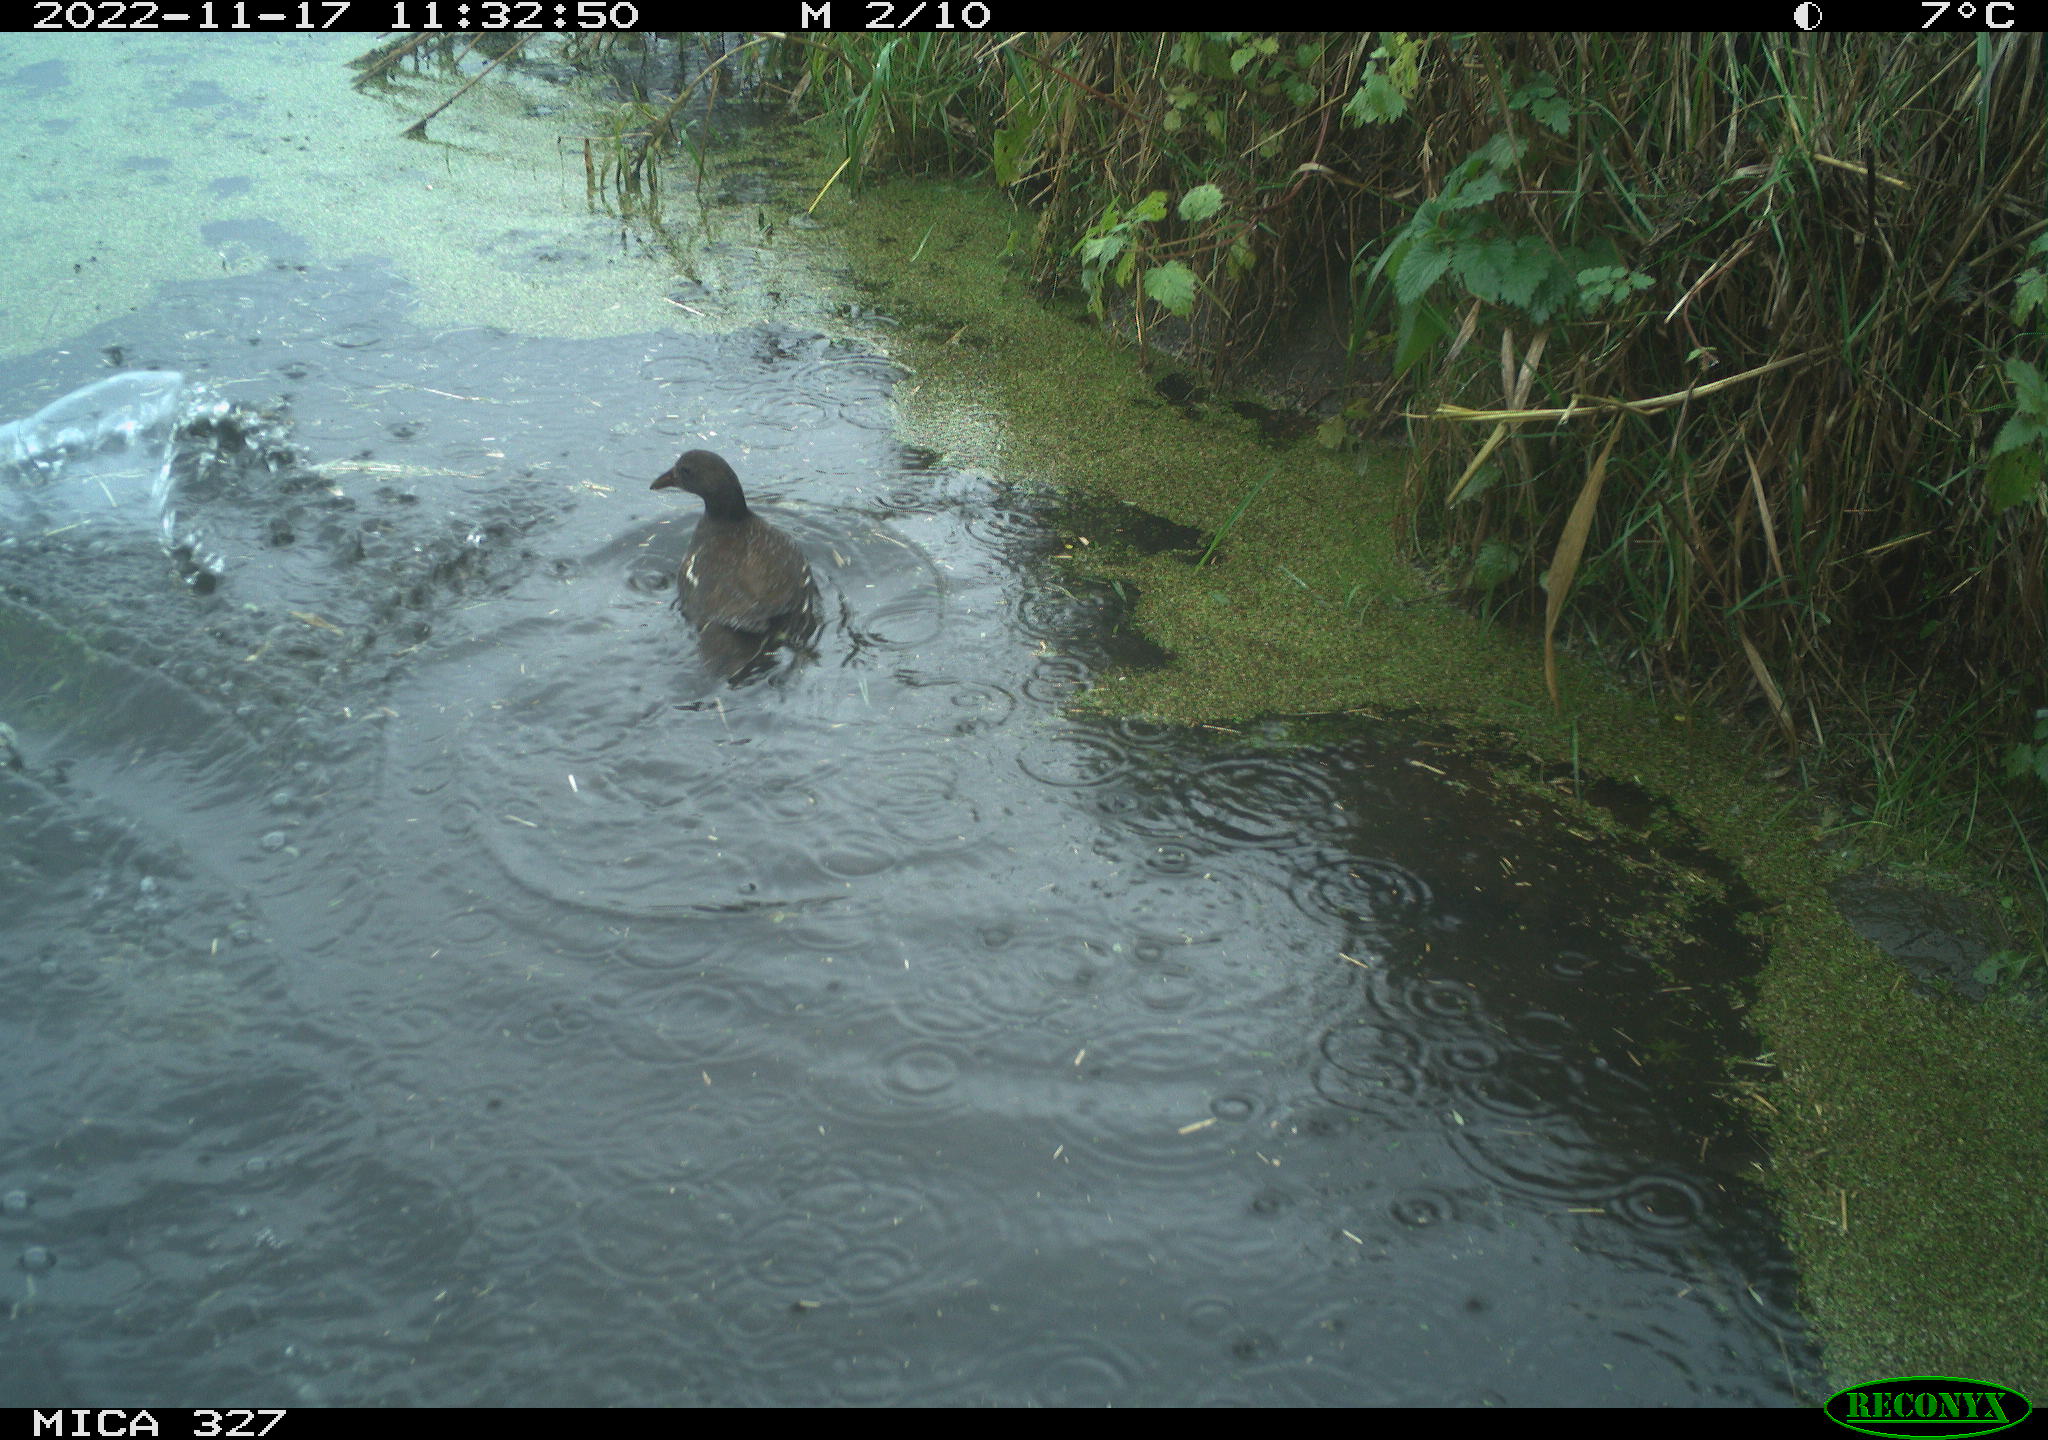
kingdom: Animalia
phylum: Chordata
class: Aves
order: Gruiformes
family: Rallidae
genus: Gallinula
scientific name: Gallinula chloropus
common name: Common moorhen
